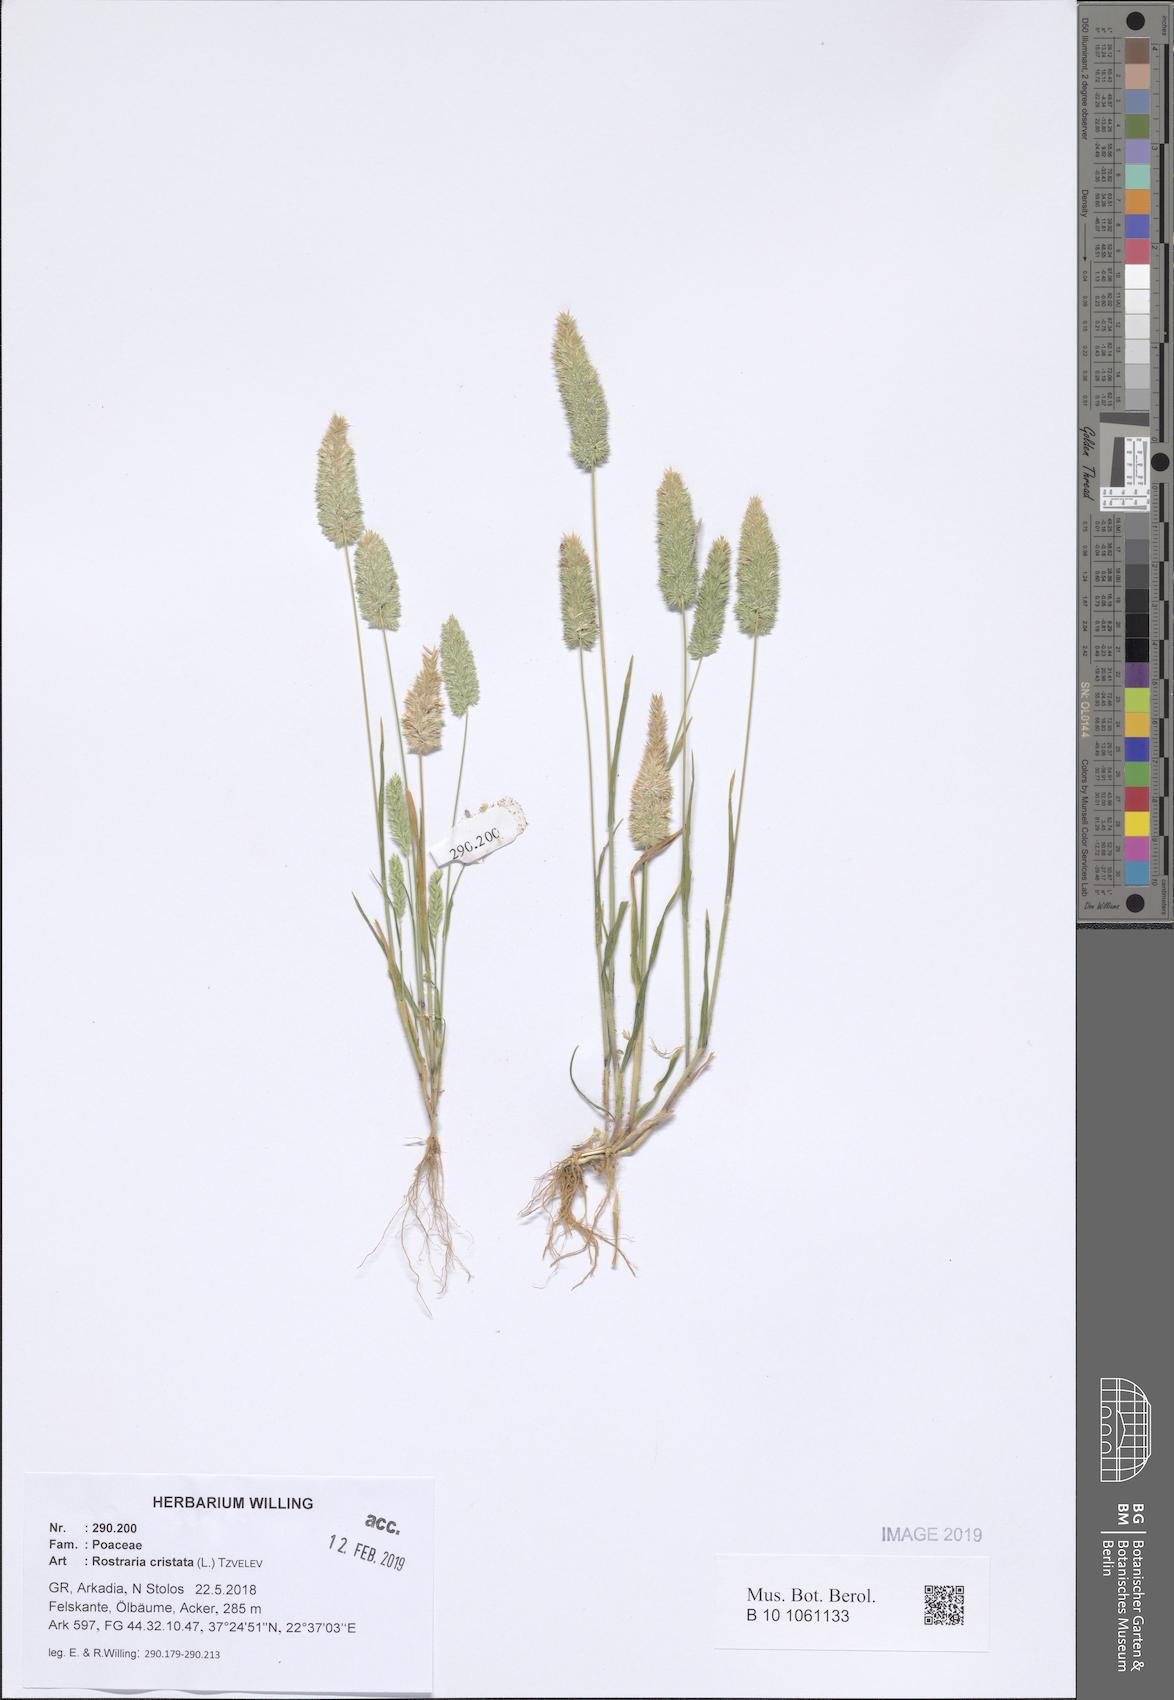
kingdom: Plantae
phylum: Tracheophyta
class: Liliopsida
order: Poales
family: Poaceae
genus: Rostraria
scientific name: Rostraria cristata
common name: Mediterranean hair-grass
